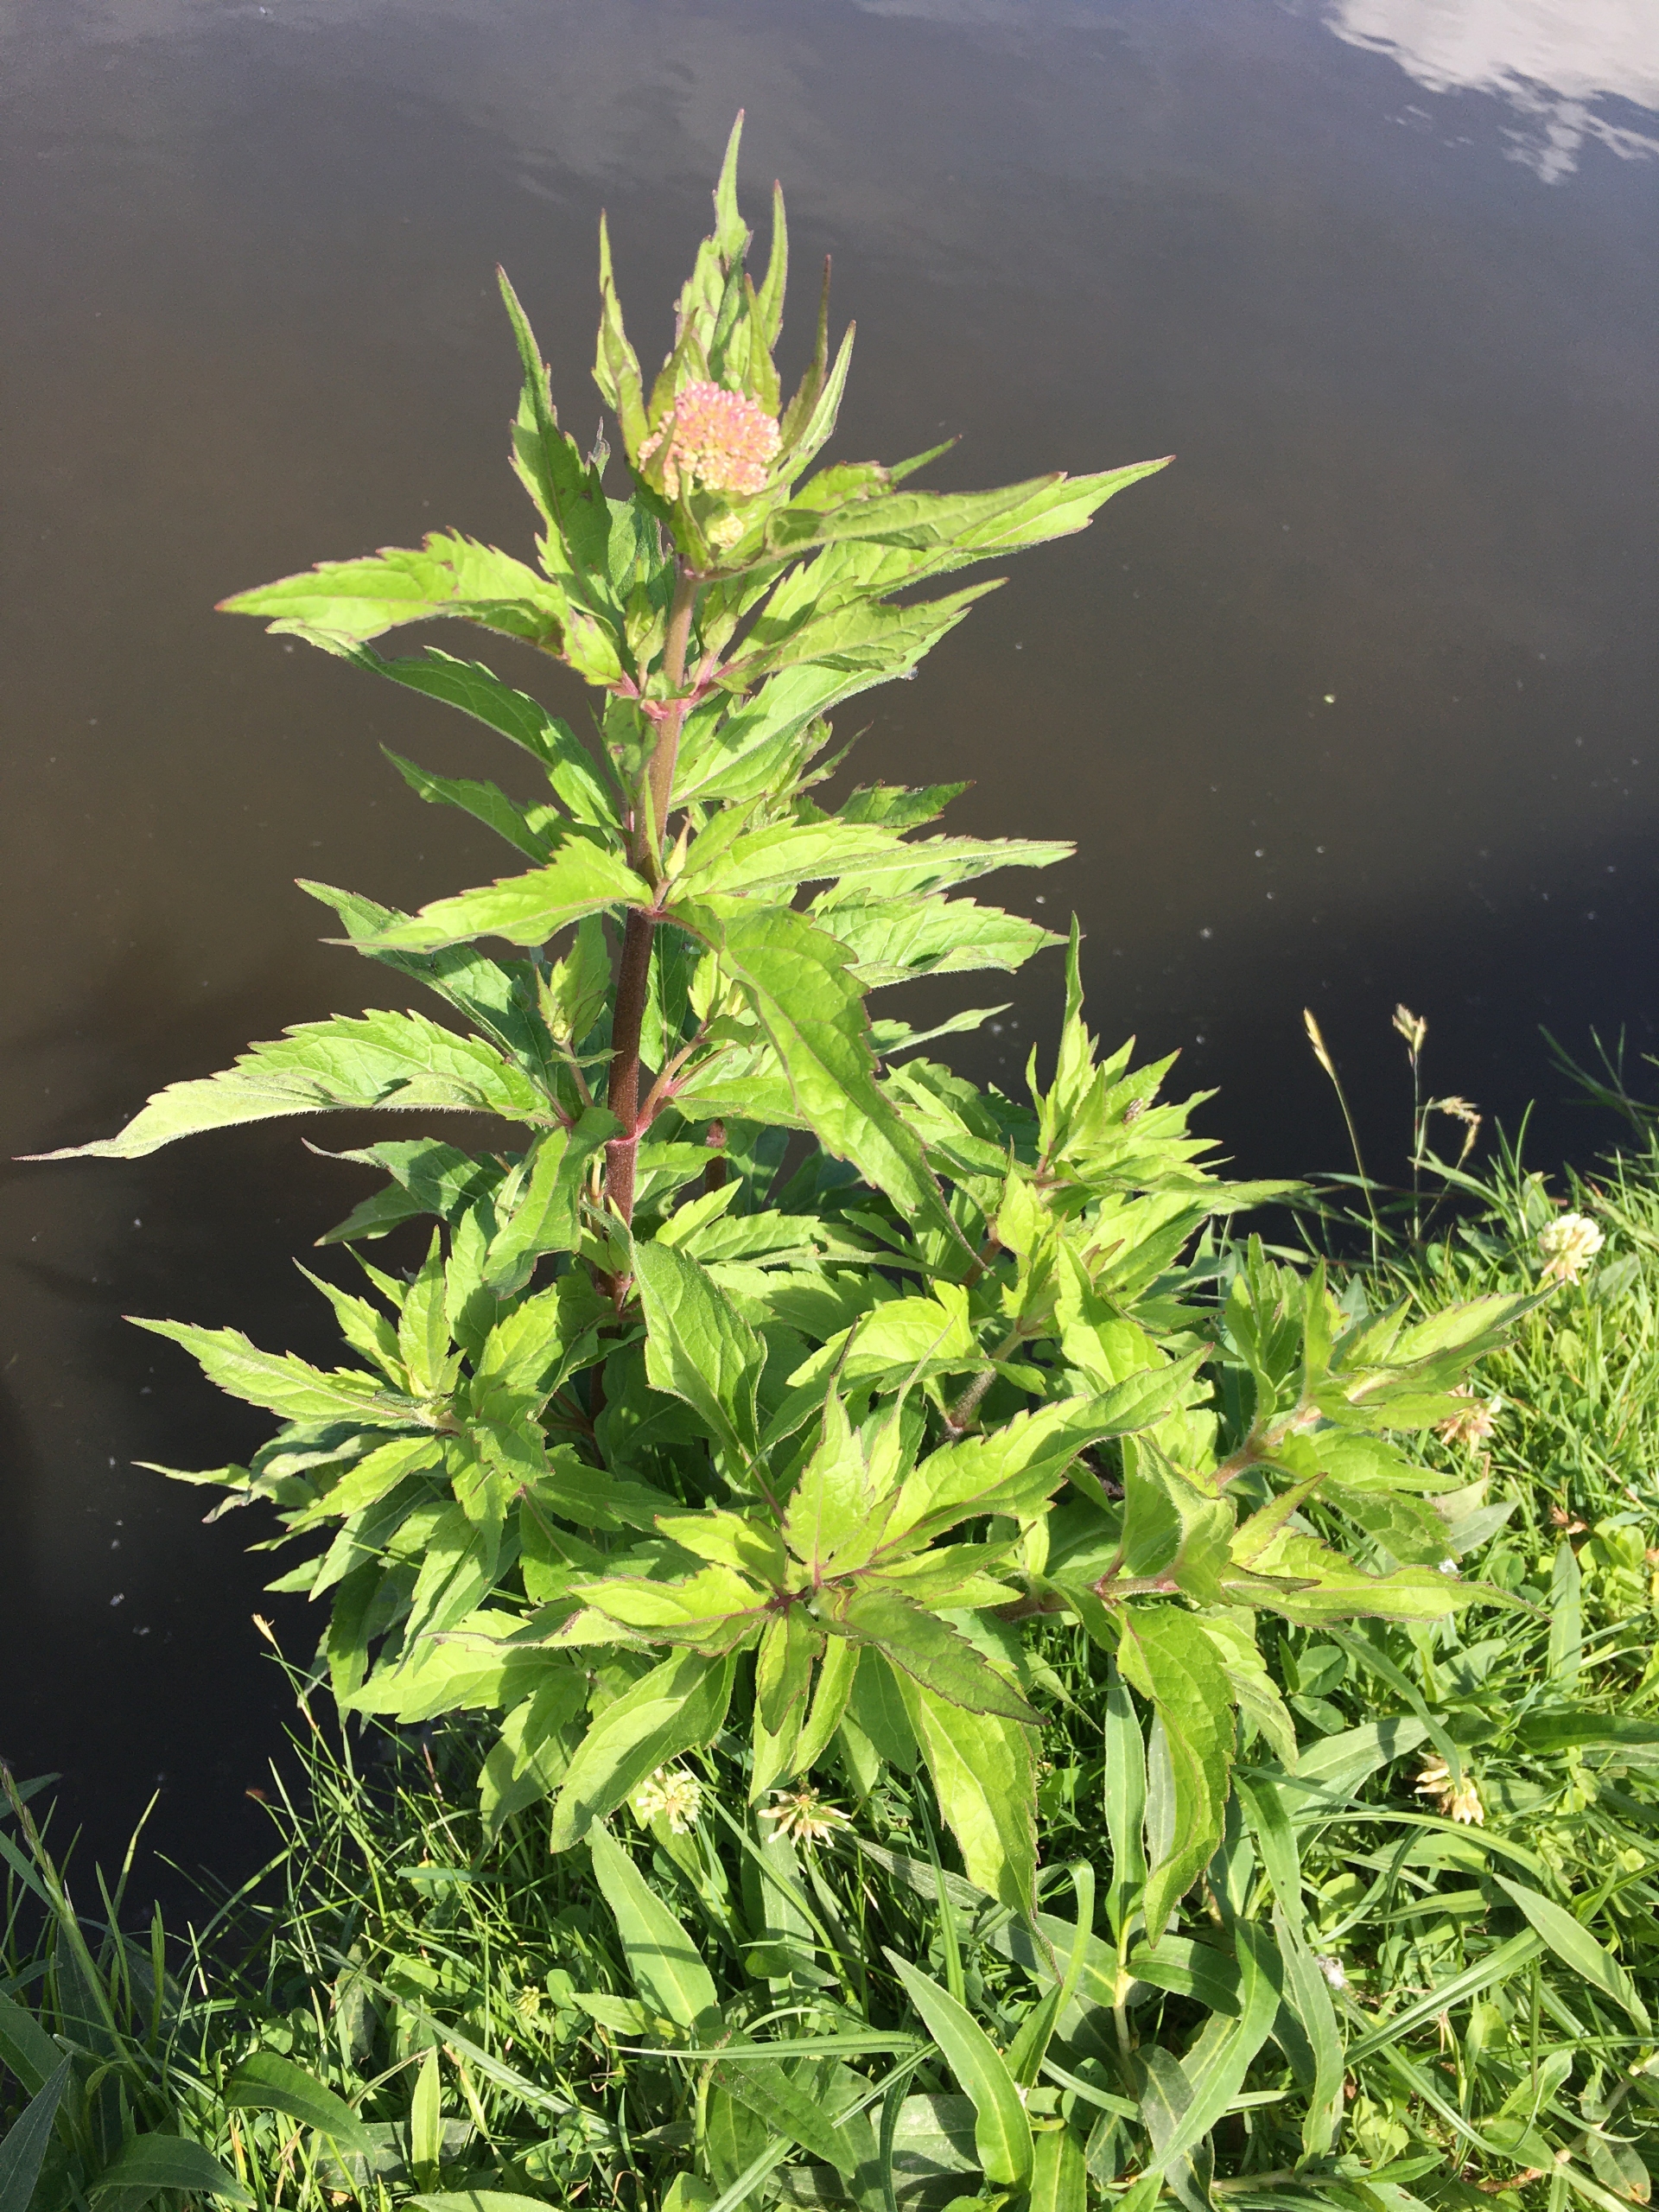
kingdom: Plantae
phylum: Tracheophyta
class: Magnoliopsida
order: Asterales
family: Asteraceae
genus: Eupatorium
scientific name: Eupatorium cannabinum
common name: Hjortetrøst
